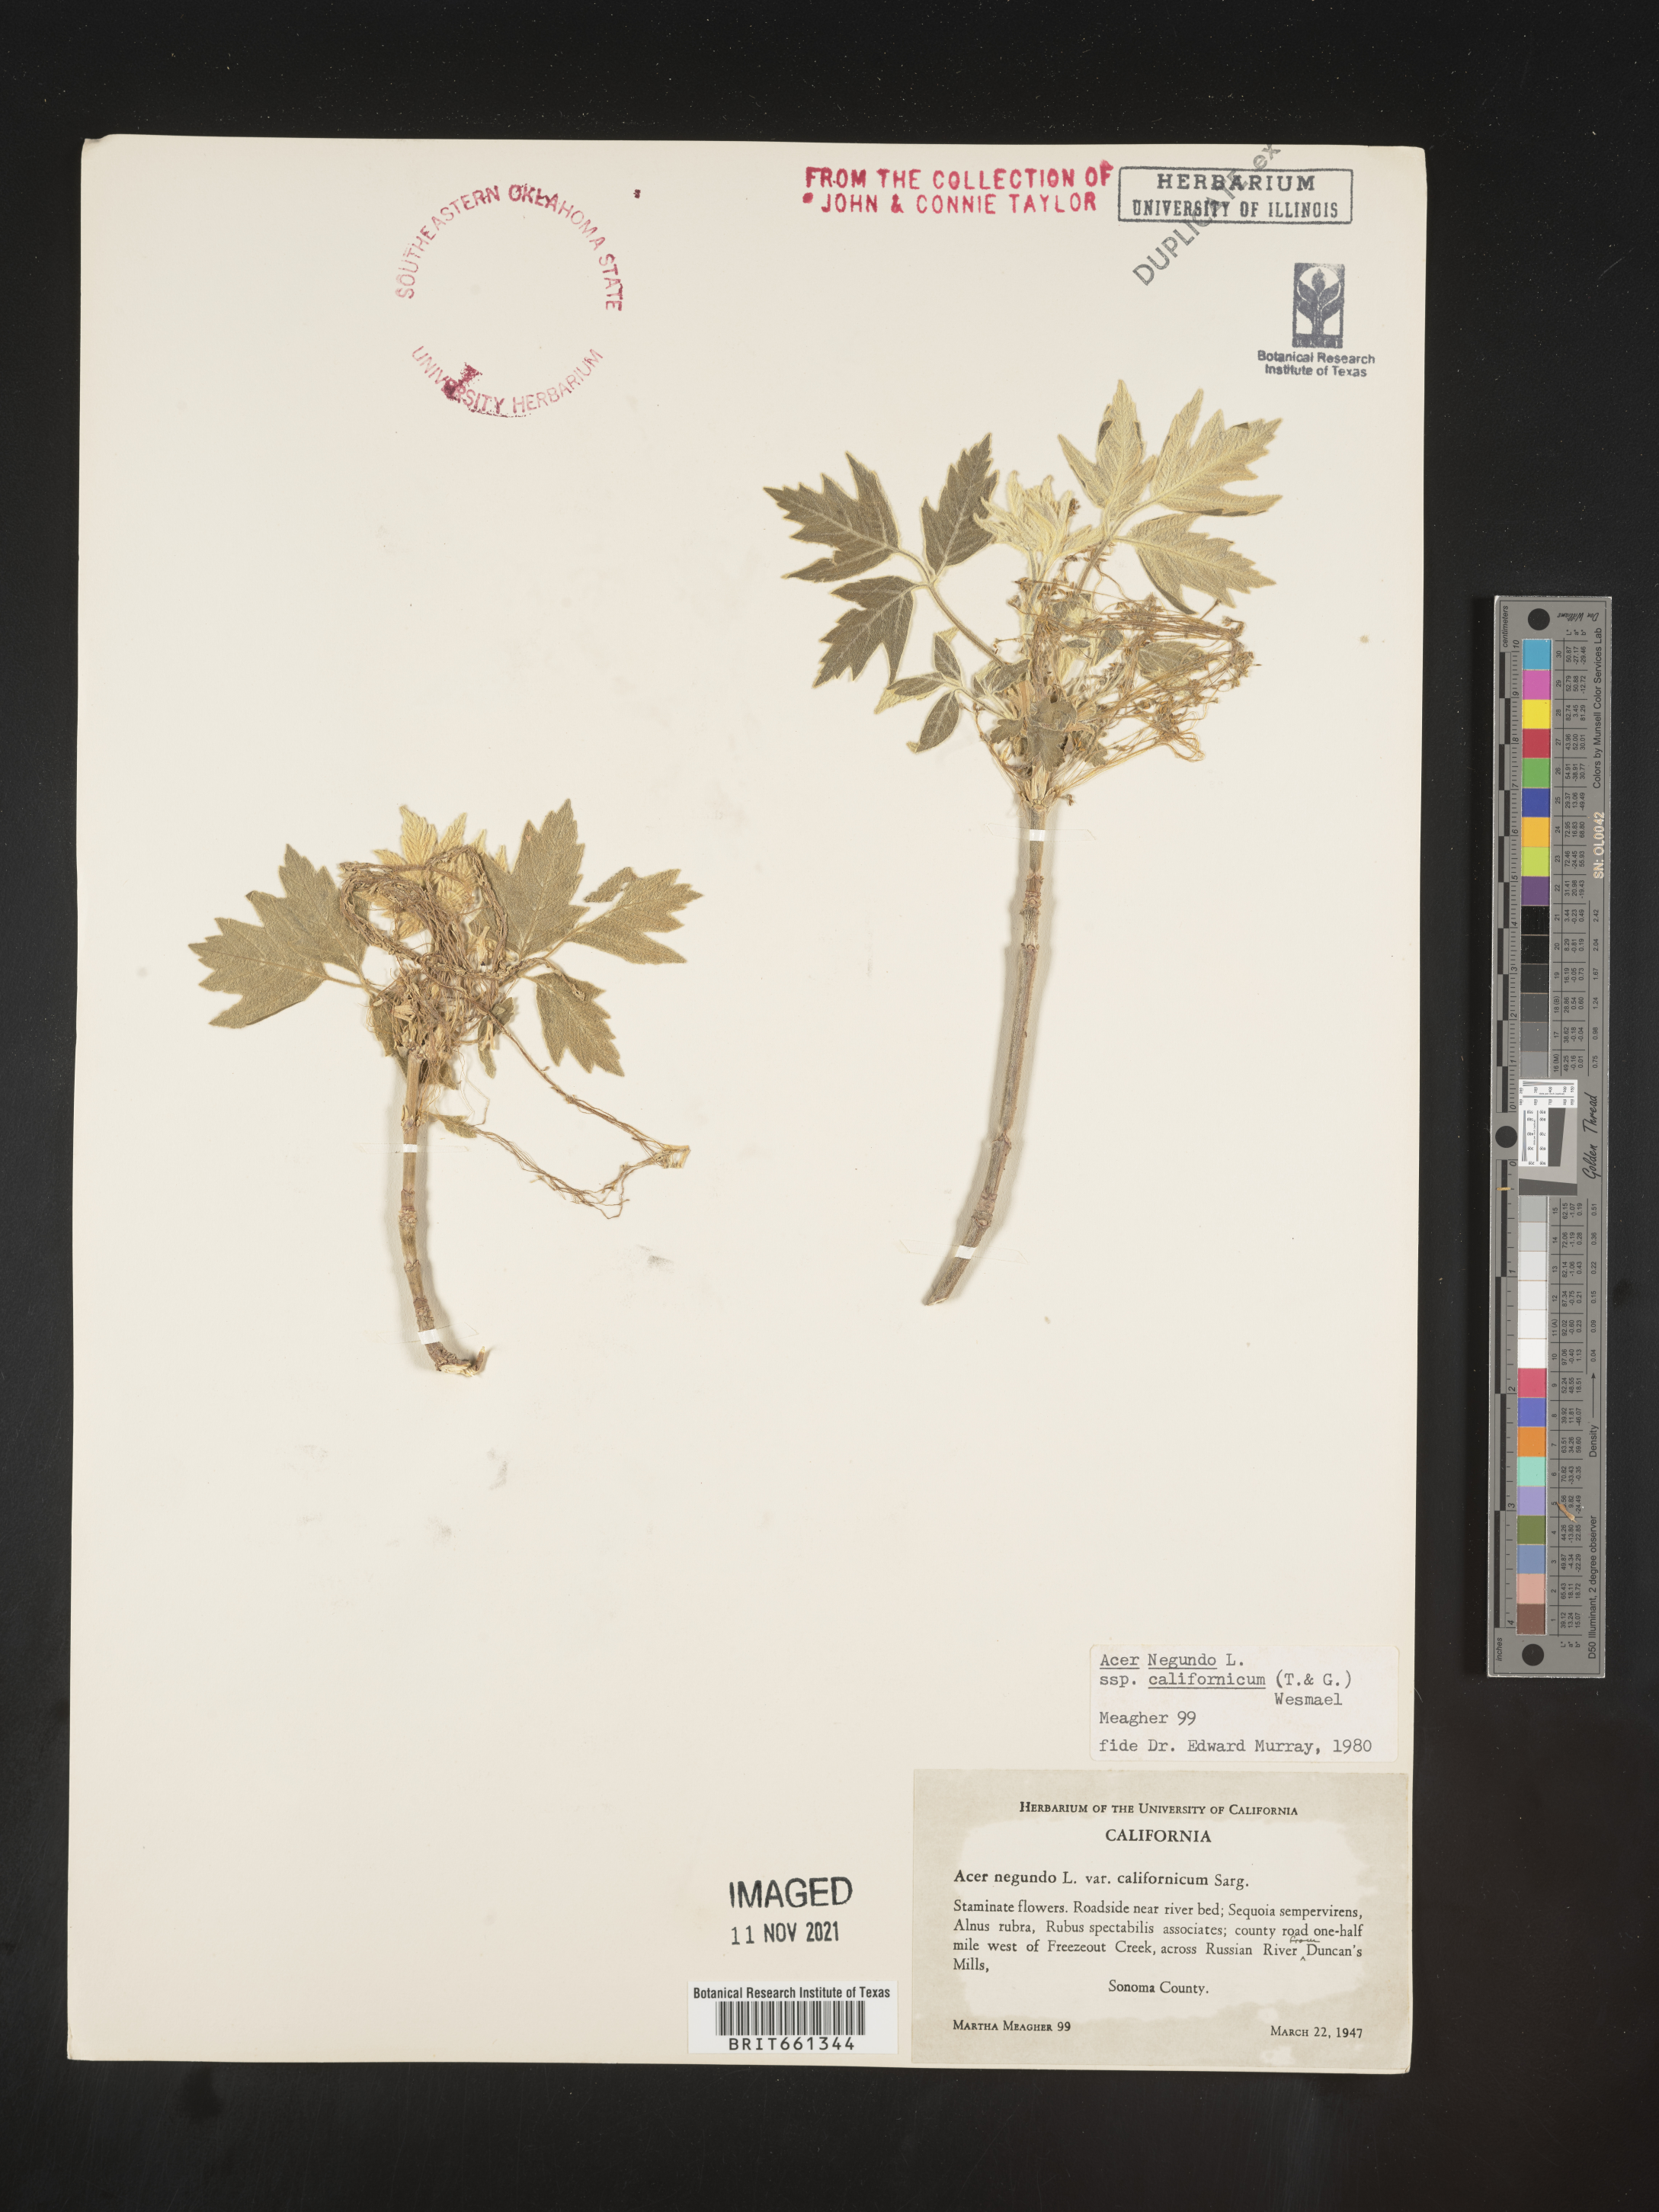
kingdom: Plantae
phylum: Tracheophyta
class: Magnoliopsida
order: Sapindales
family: Sapindaceae
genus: Acer
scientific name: Acer negundo
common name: Ashleaf maple
